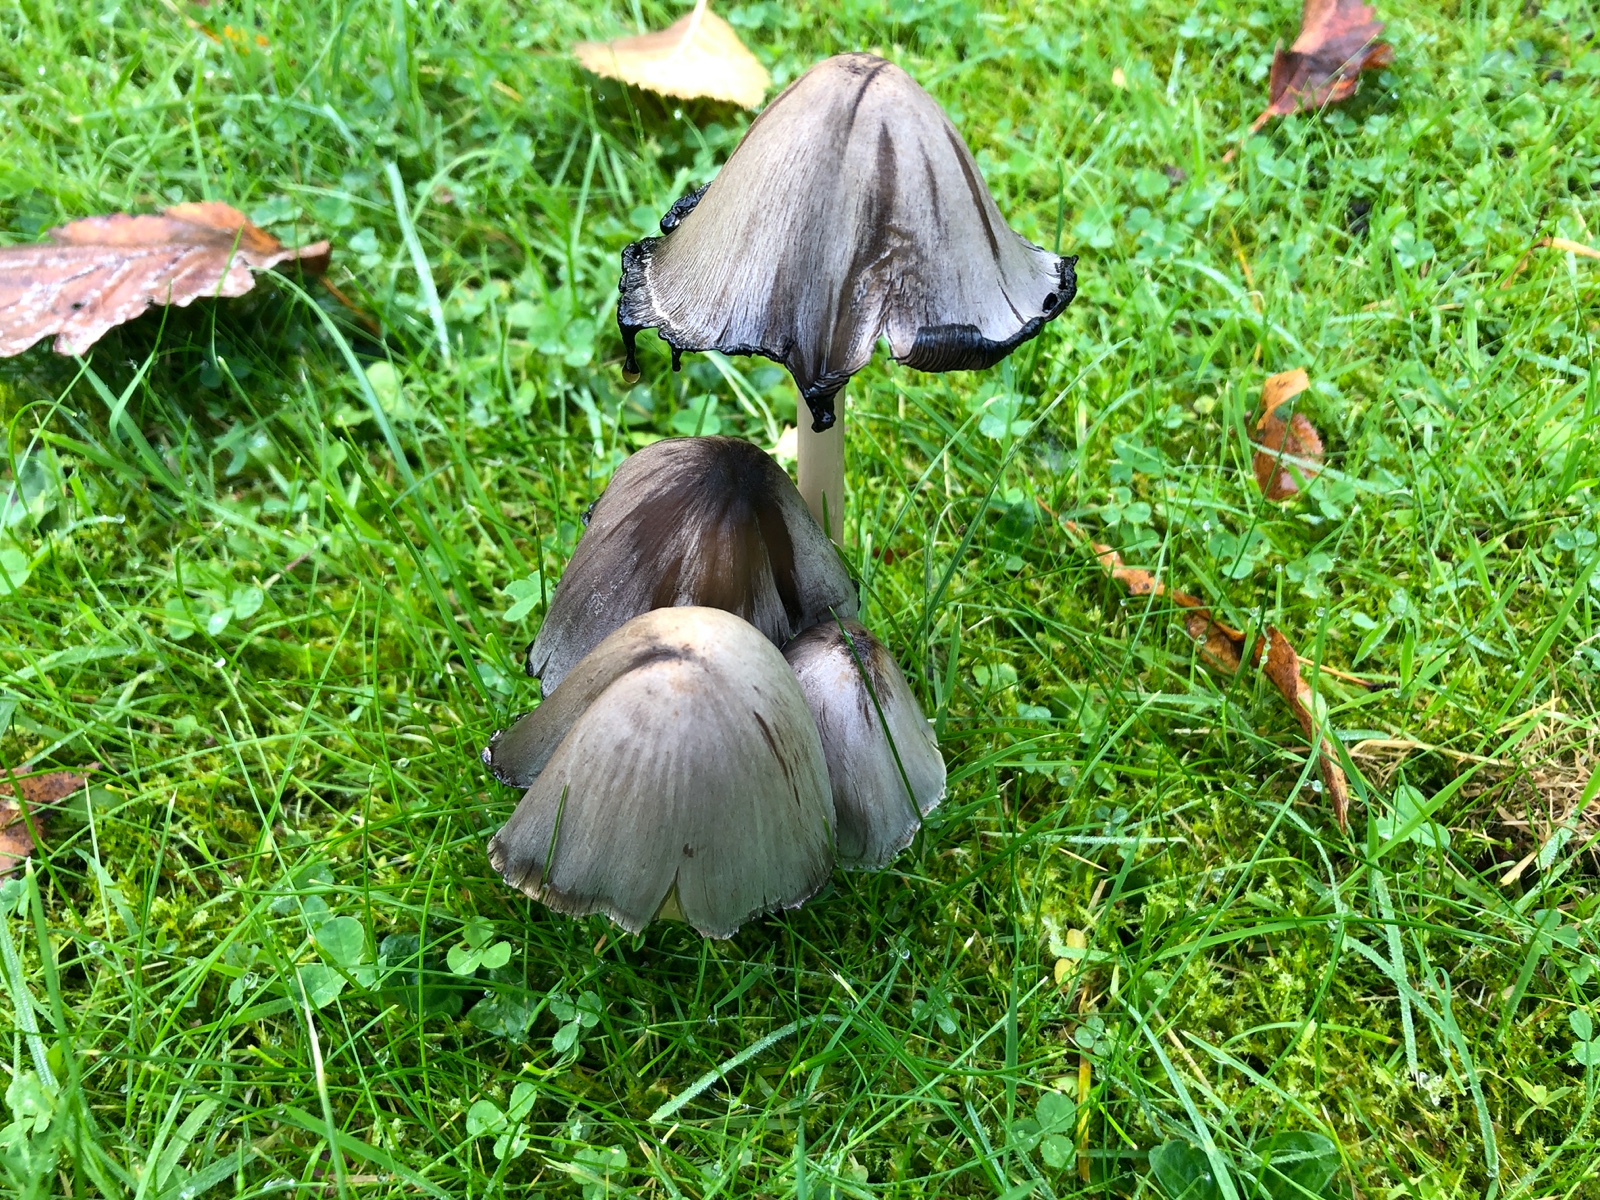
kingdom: Fungi
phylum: Basidiomycota
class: Agaricomycetes
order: Agaricales
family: Psathyrellaceae
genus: Coprinopsis
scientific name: Coprinopsis atramentaria
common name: almindelig blækhat
